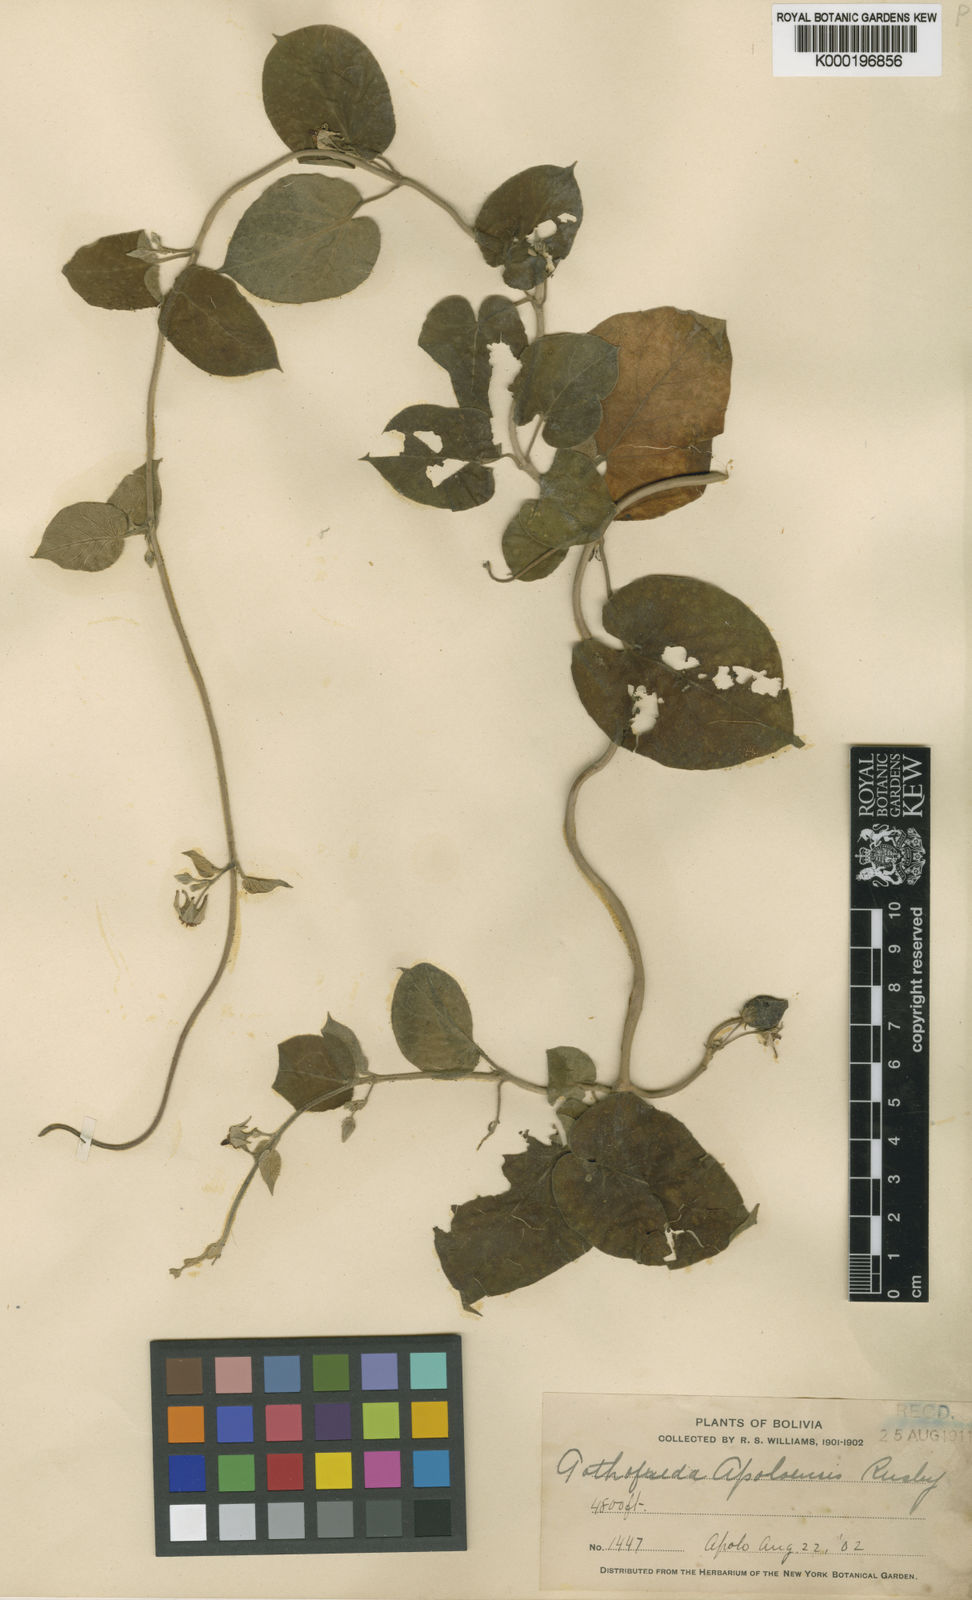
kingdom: Plantae
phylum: Tracheophyta
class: Magnoliopsida
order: Gentianales
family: Apocynaceae
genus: Oxypetalum
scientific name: Oxypetalum balansae
